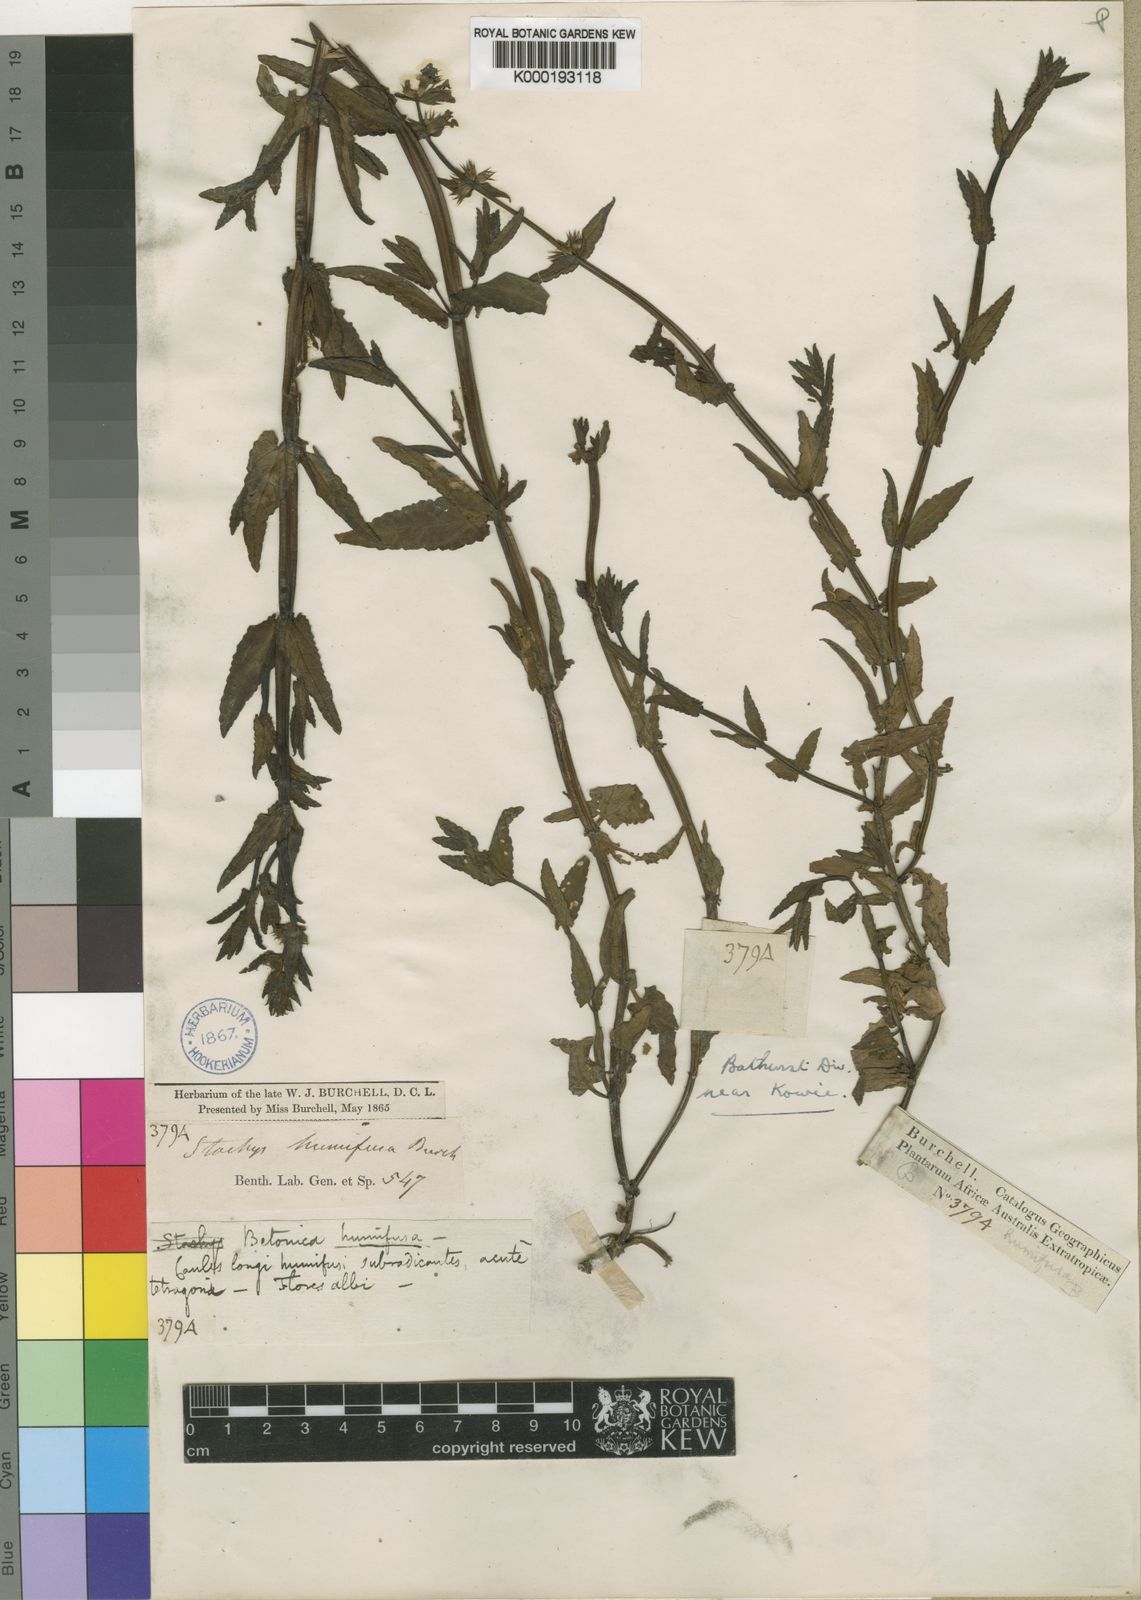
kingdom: Plantae
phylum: Tracheophyta
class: Magnoliopsida
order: Lamiales
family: Lamiaceae
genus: Stachys
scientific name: Stachys humifusa
